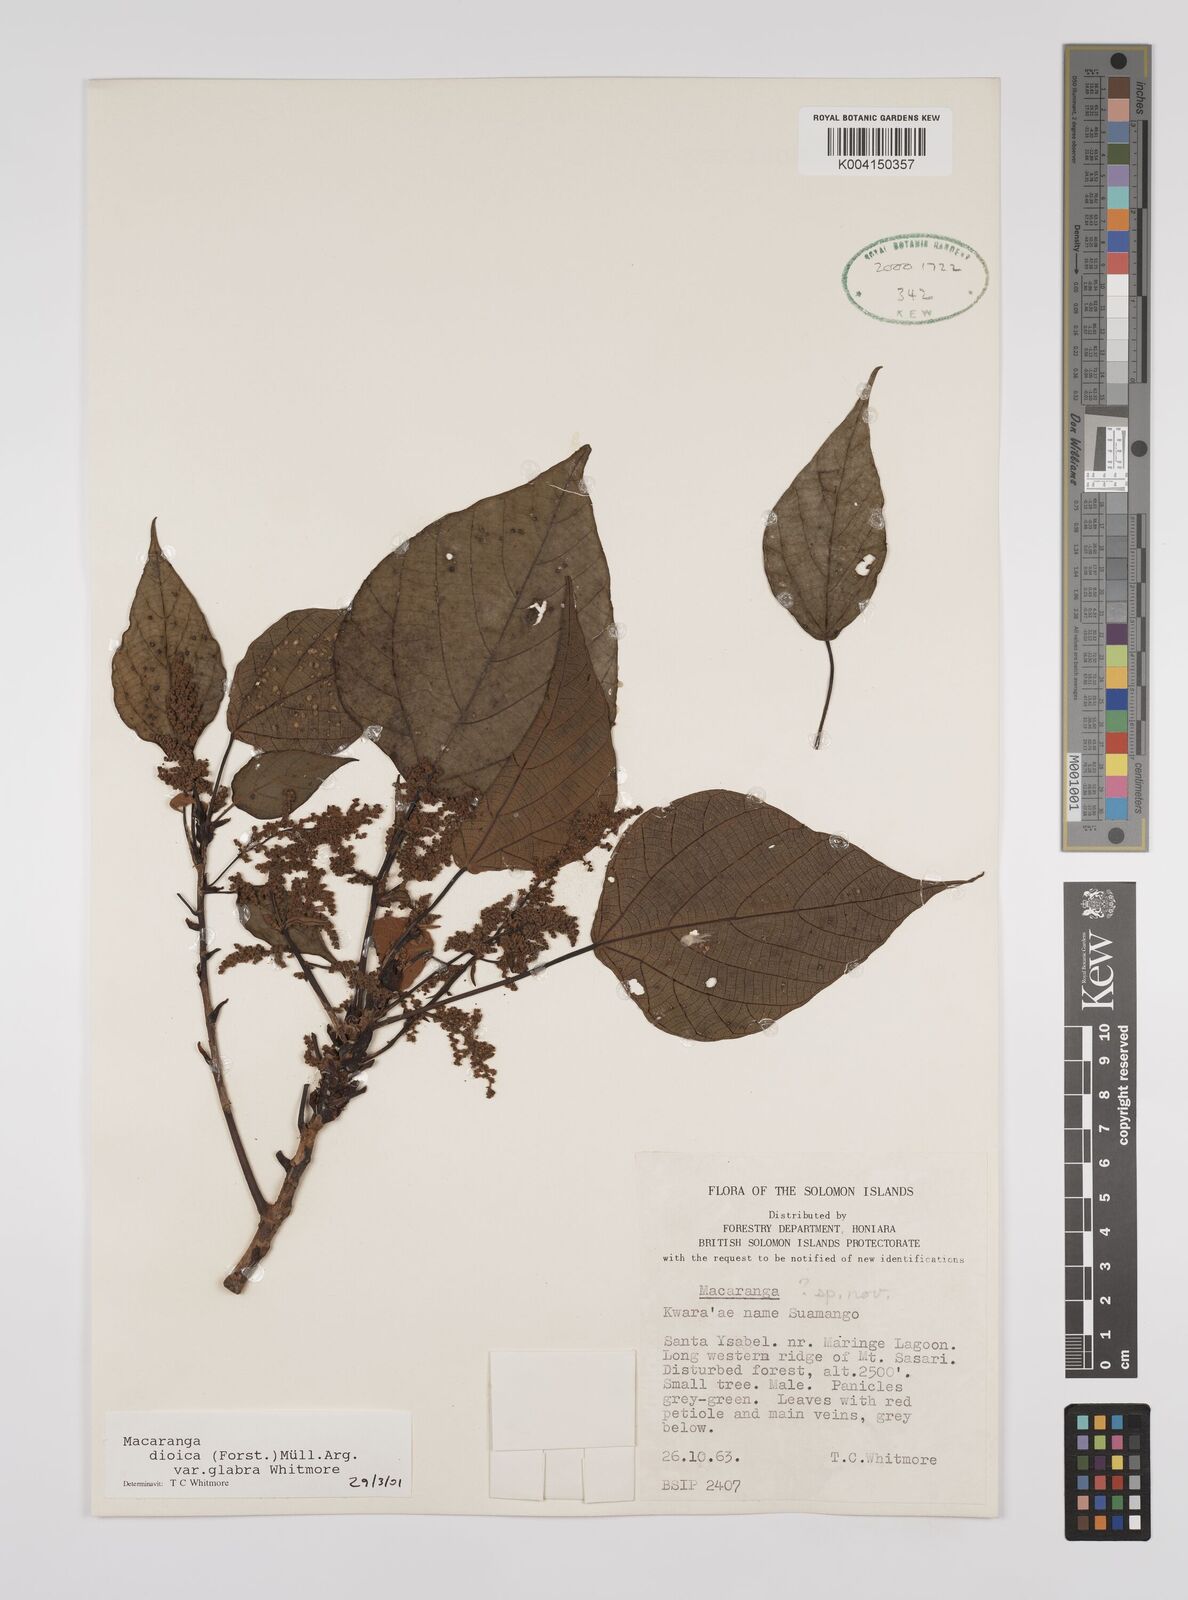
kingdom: Plantae
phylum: Tracheophyta
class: Magnoliopsida
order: Malpighiales
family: Euphorbiaceae
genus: Macaranga
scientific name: Macaranga dioica
